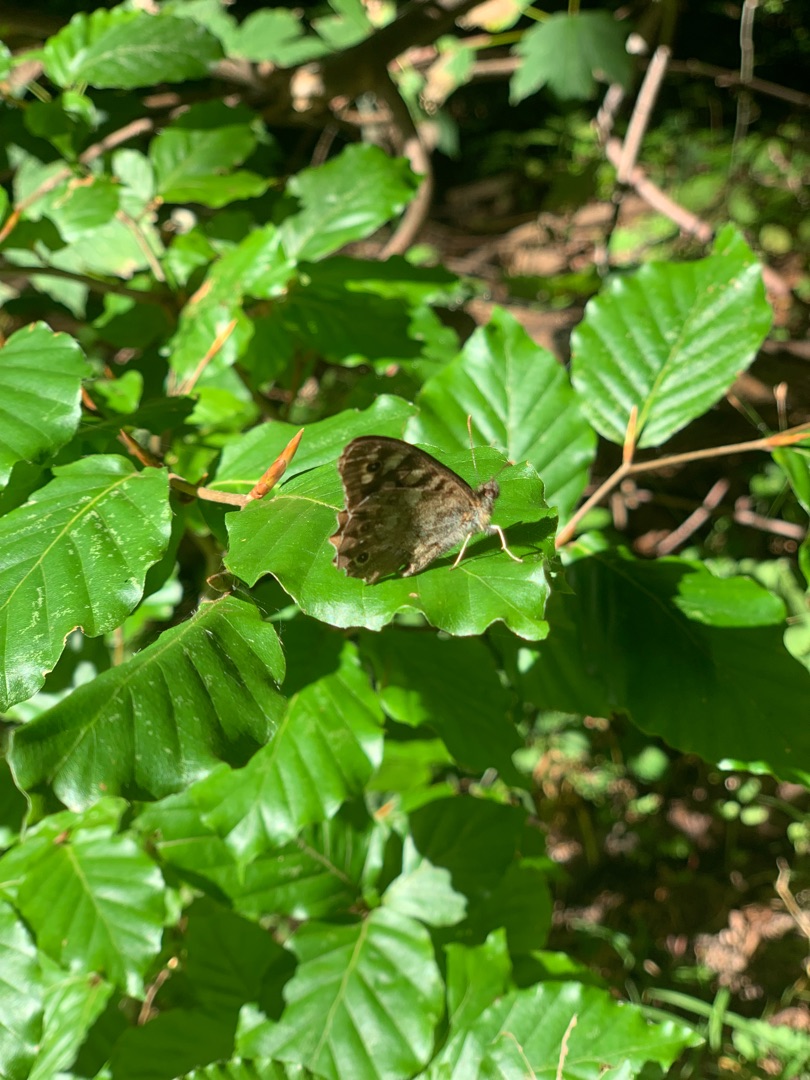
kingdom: Animalia
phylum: Arthropoda
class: Insecta
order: Lepidoptera
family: Nymphalidae
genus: Pararge
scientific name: Pararge aegeria
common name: Skovrandøje
